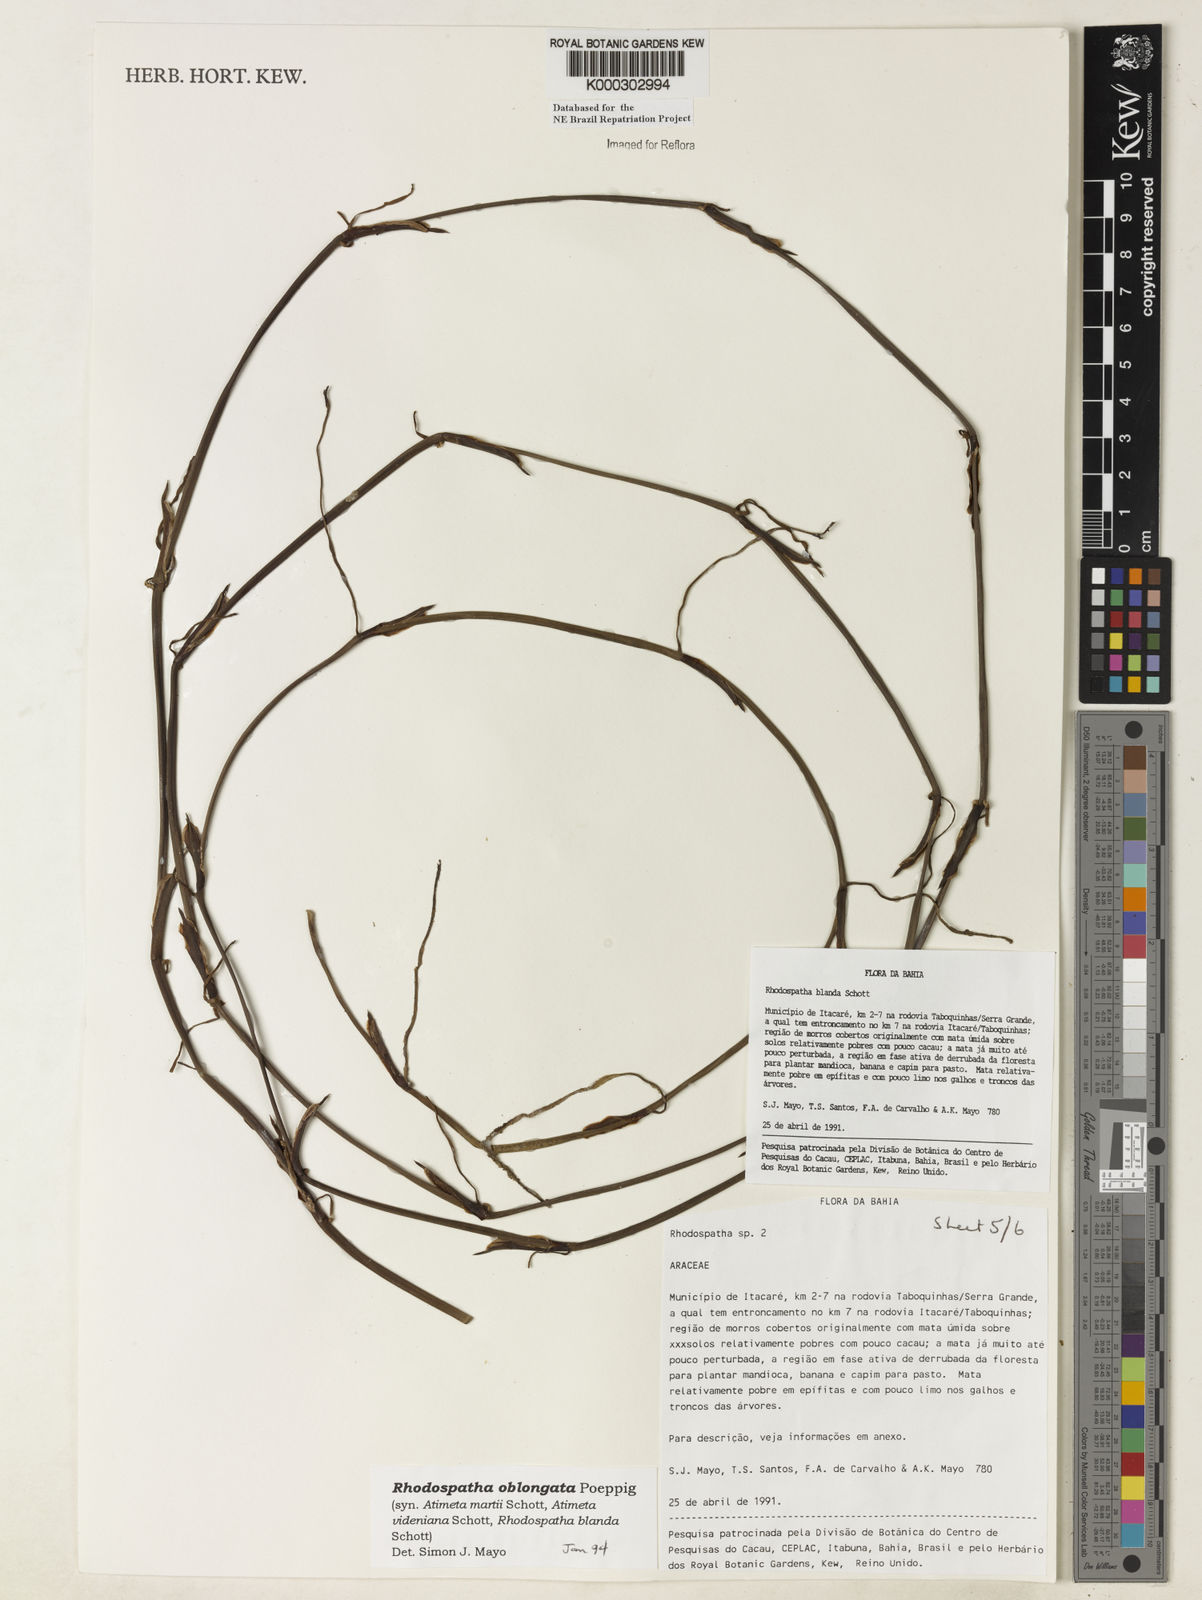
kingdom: Plantae
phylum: Tracheophyta
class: Liliopsida
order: Alismatales
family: Araceae
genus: Rhodospatha
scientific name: Rhodospatha oblongata
